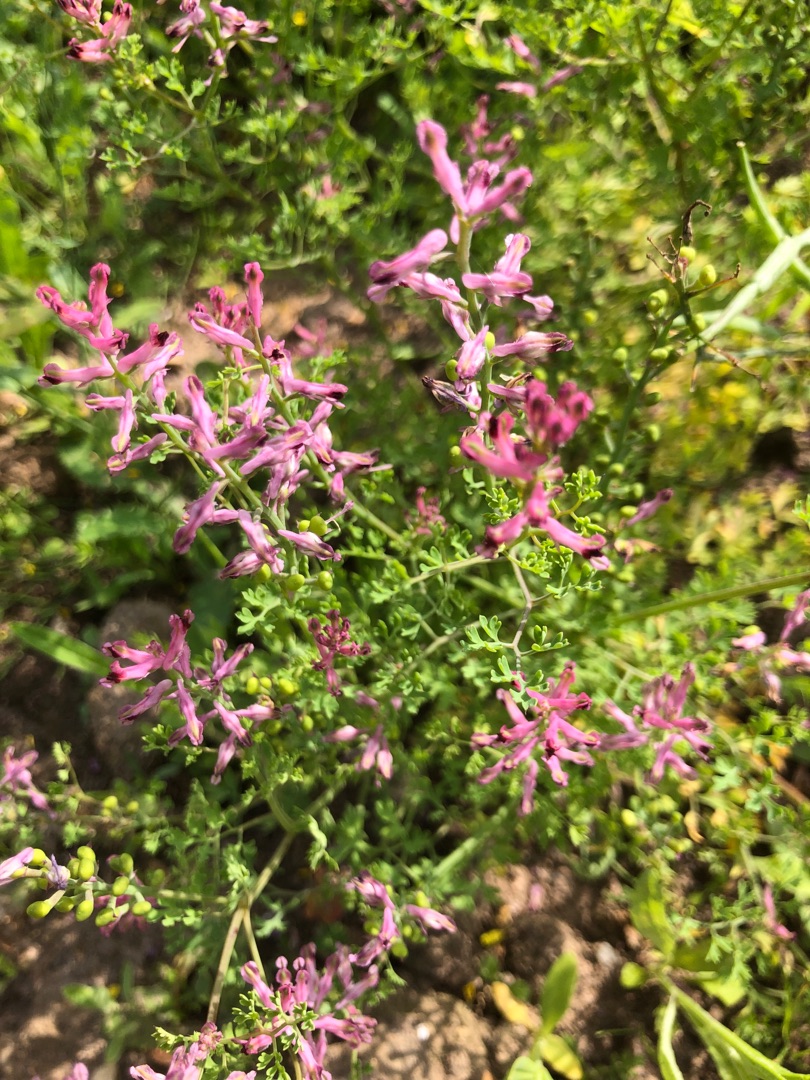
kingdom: Plantae
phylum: Tracheophyta
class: Magnoliopsida
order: Ranunculales
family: Papaveraceae
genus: Fumaria
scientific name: Fumaria officinalis
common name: Læge-jordrøg
